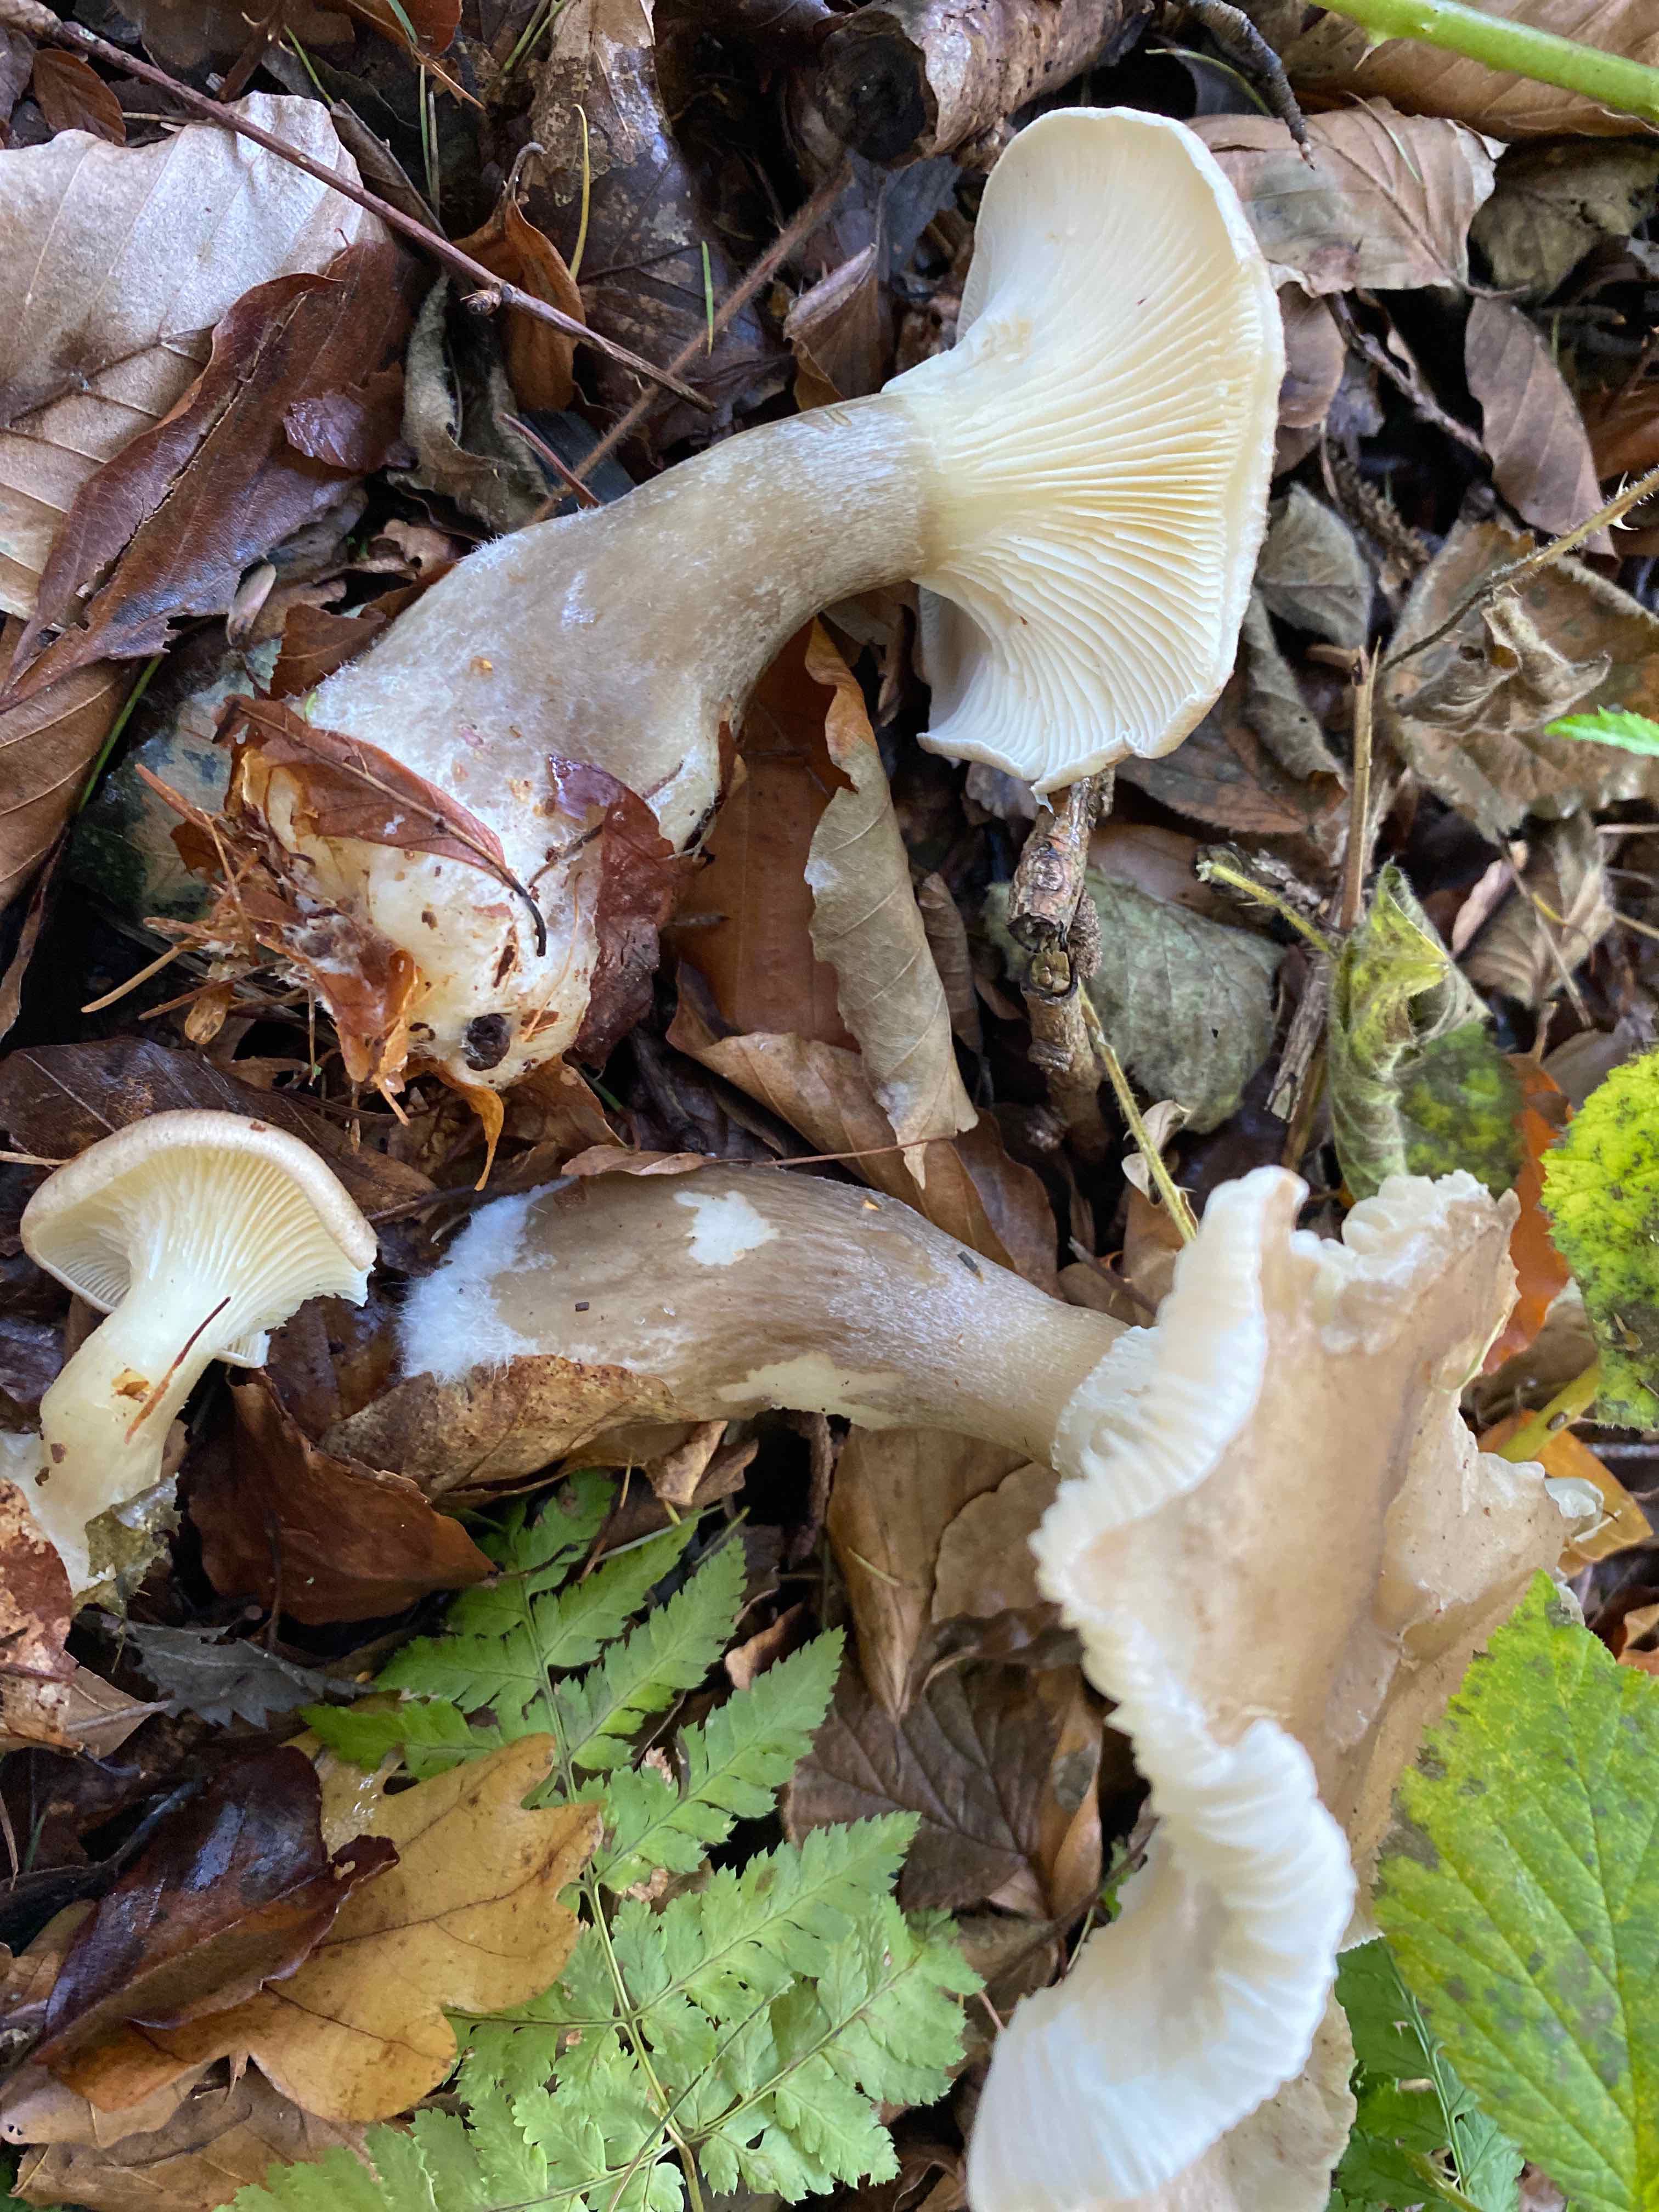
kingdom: Fungi
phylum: Basidiomycota
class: Agaricomycetes
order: Agaricales
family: Hygrophoraceae
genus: Ampulloclitocybe
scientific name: Ampulloclitocybe clavipes
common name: køllefod
